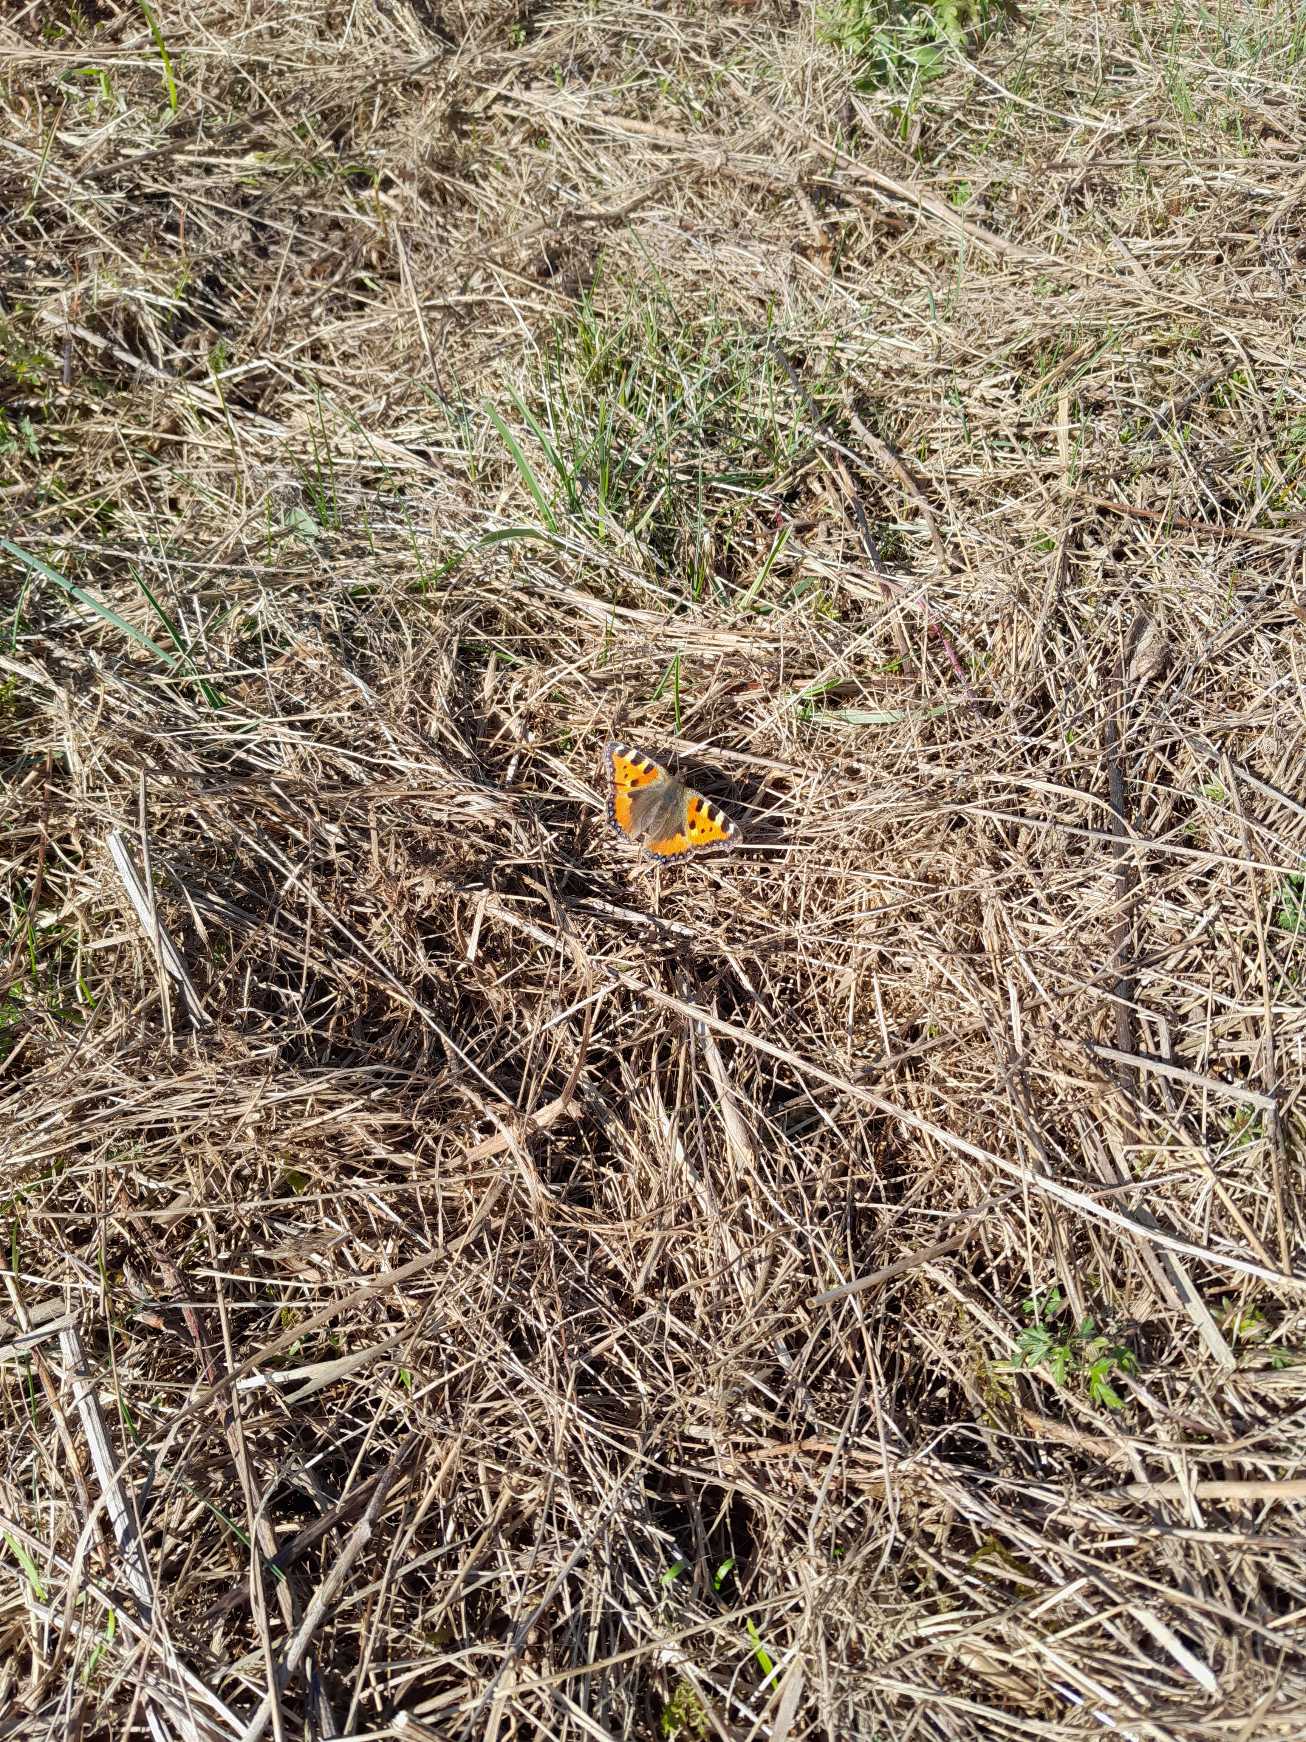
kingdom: Animalia
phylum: Arthropoda
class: Insecta
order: Lepidoptera
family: Nymphalidae
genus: Aglais
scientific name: Aglais urticae
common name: Nældens takvinge
